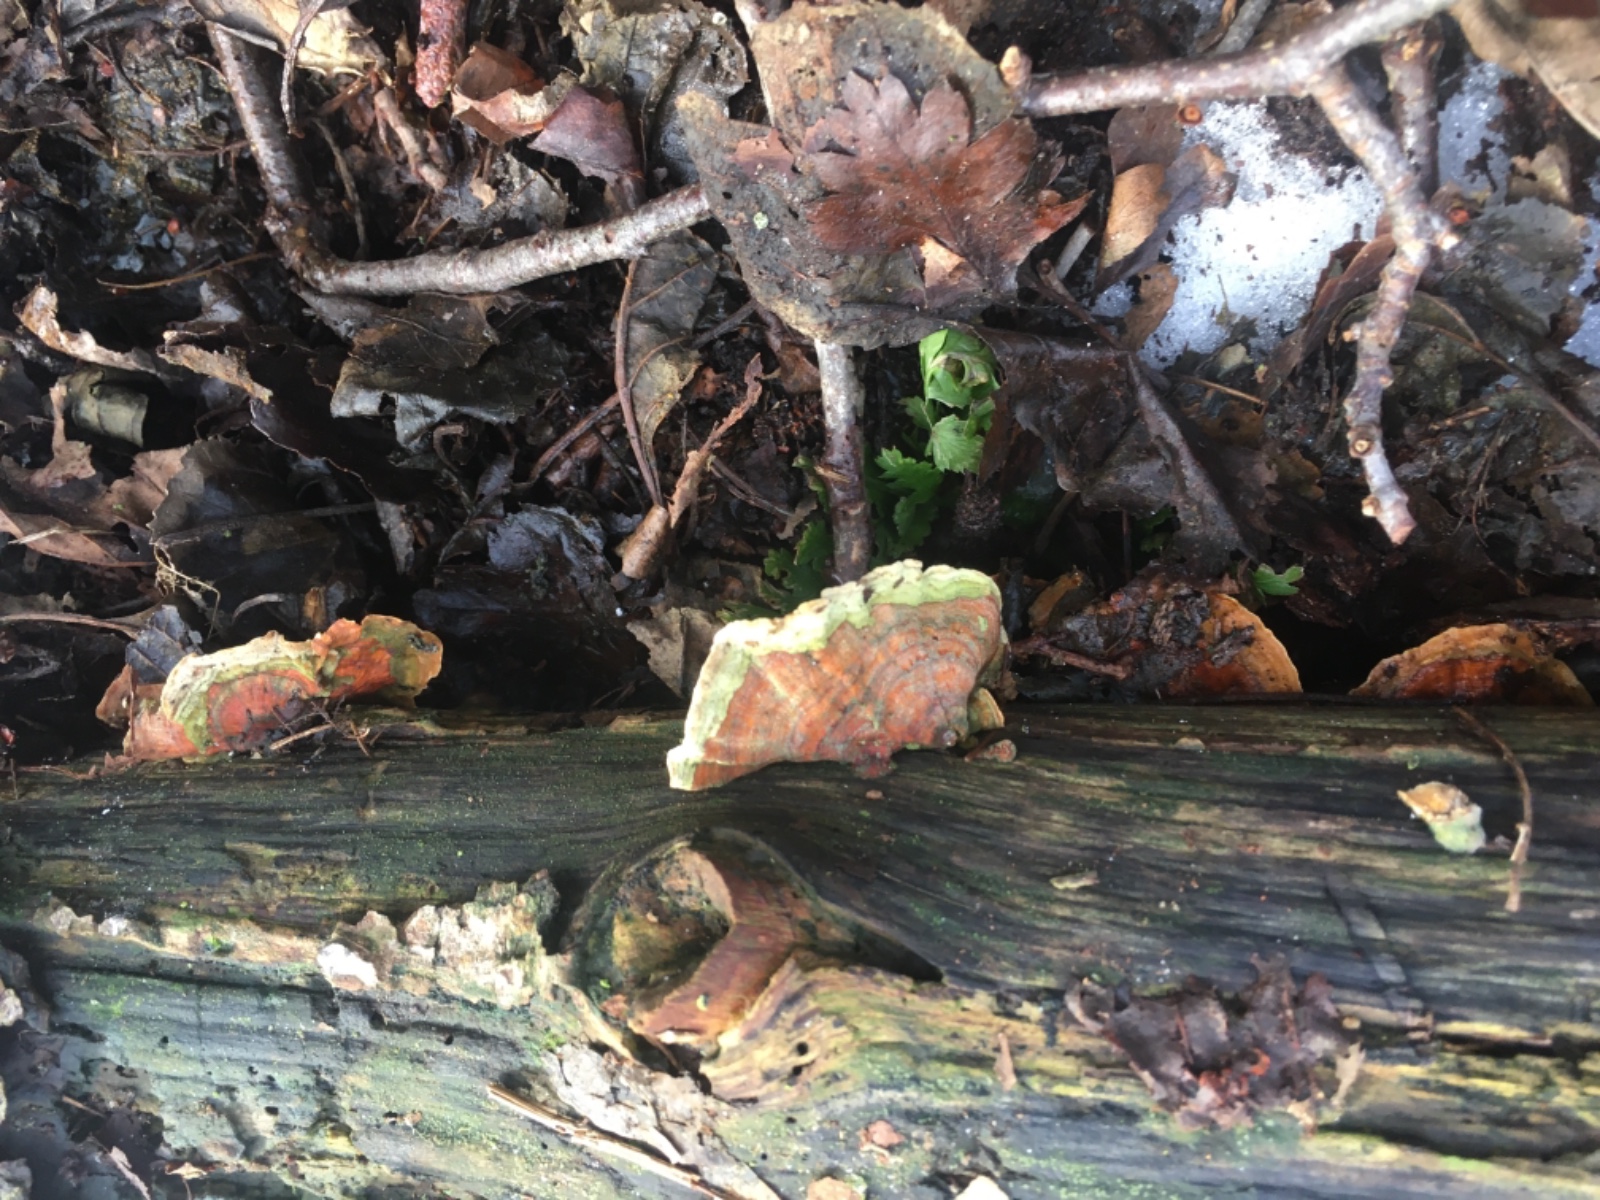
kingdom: Fungi
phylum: Basidiomycota
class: Agaricomycetes
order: Russulales
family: Stereaceae
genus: Stereum
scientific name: Stereum subtomentosum
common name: smuk lædersvamp
